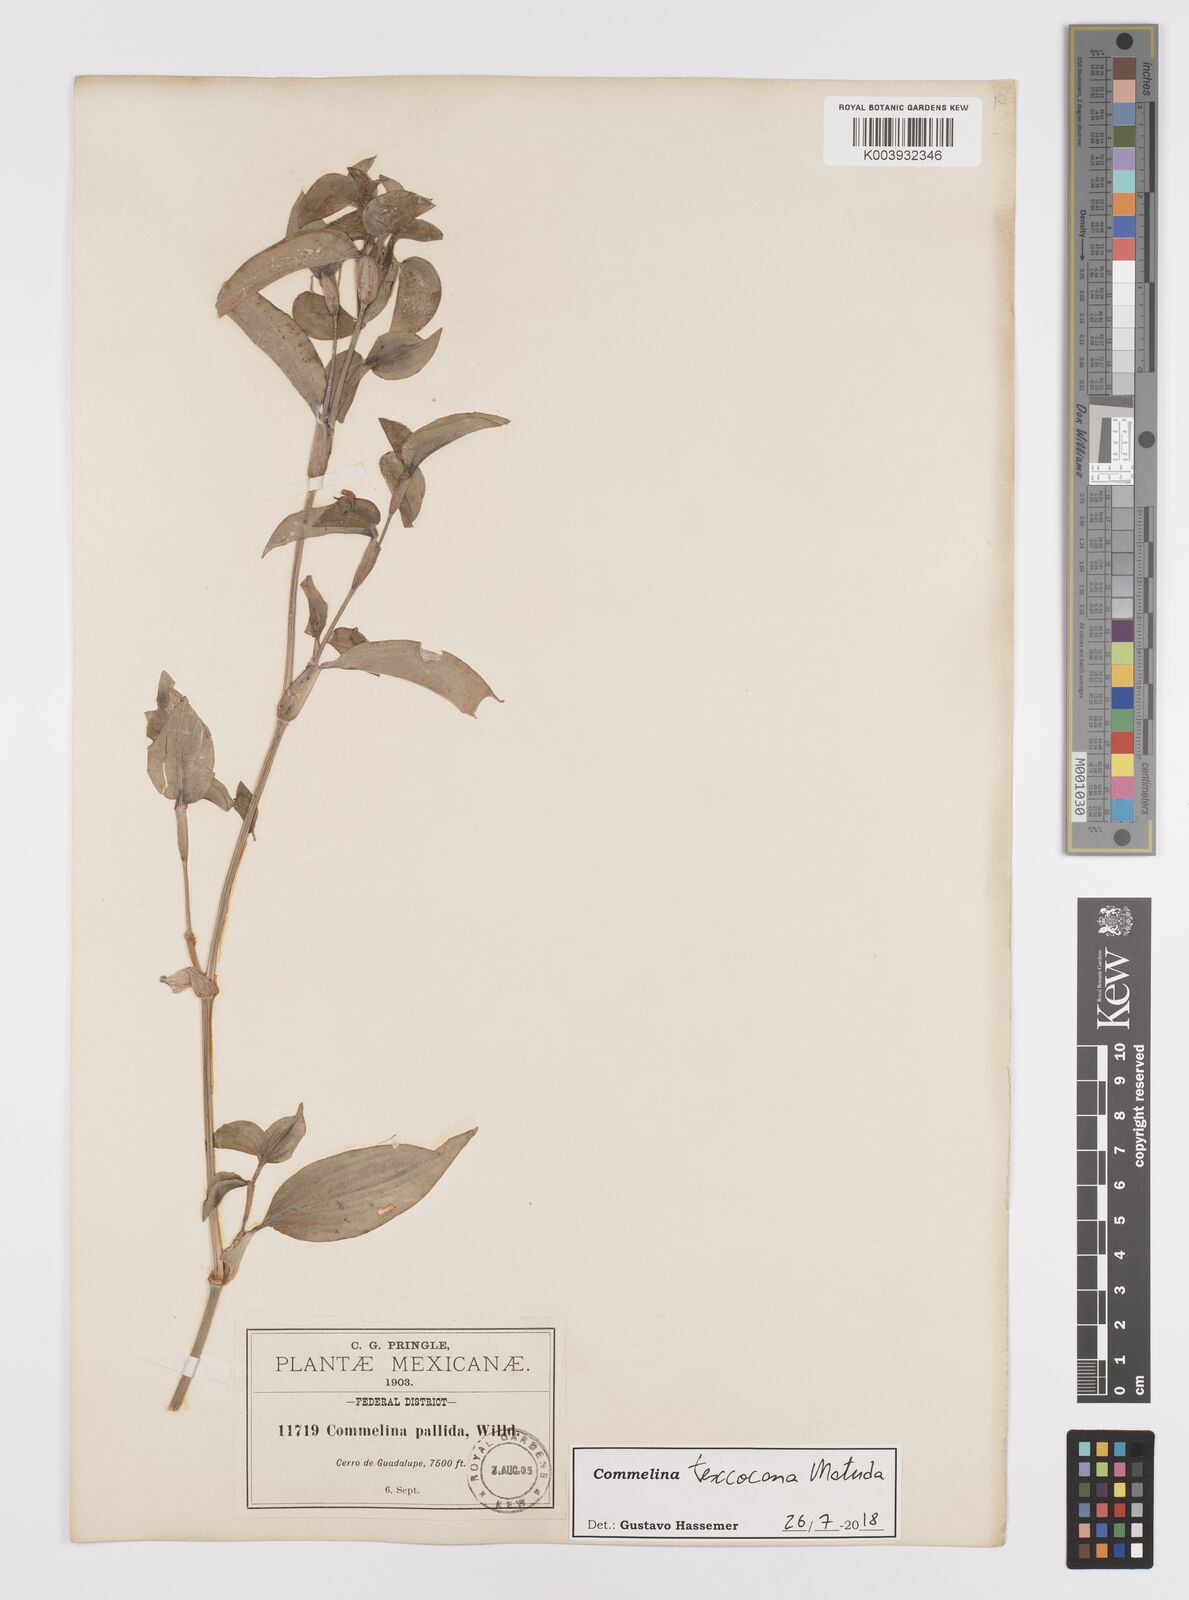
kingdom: Plantae
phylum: Tracheophyta
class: Liliopsida
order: Commelinales
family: Commelinaceae
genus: Commelina
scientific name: Commelina texcocana
